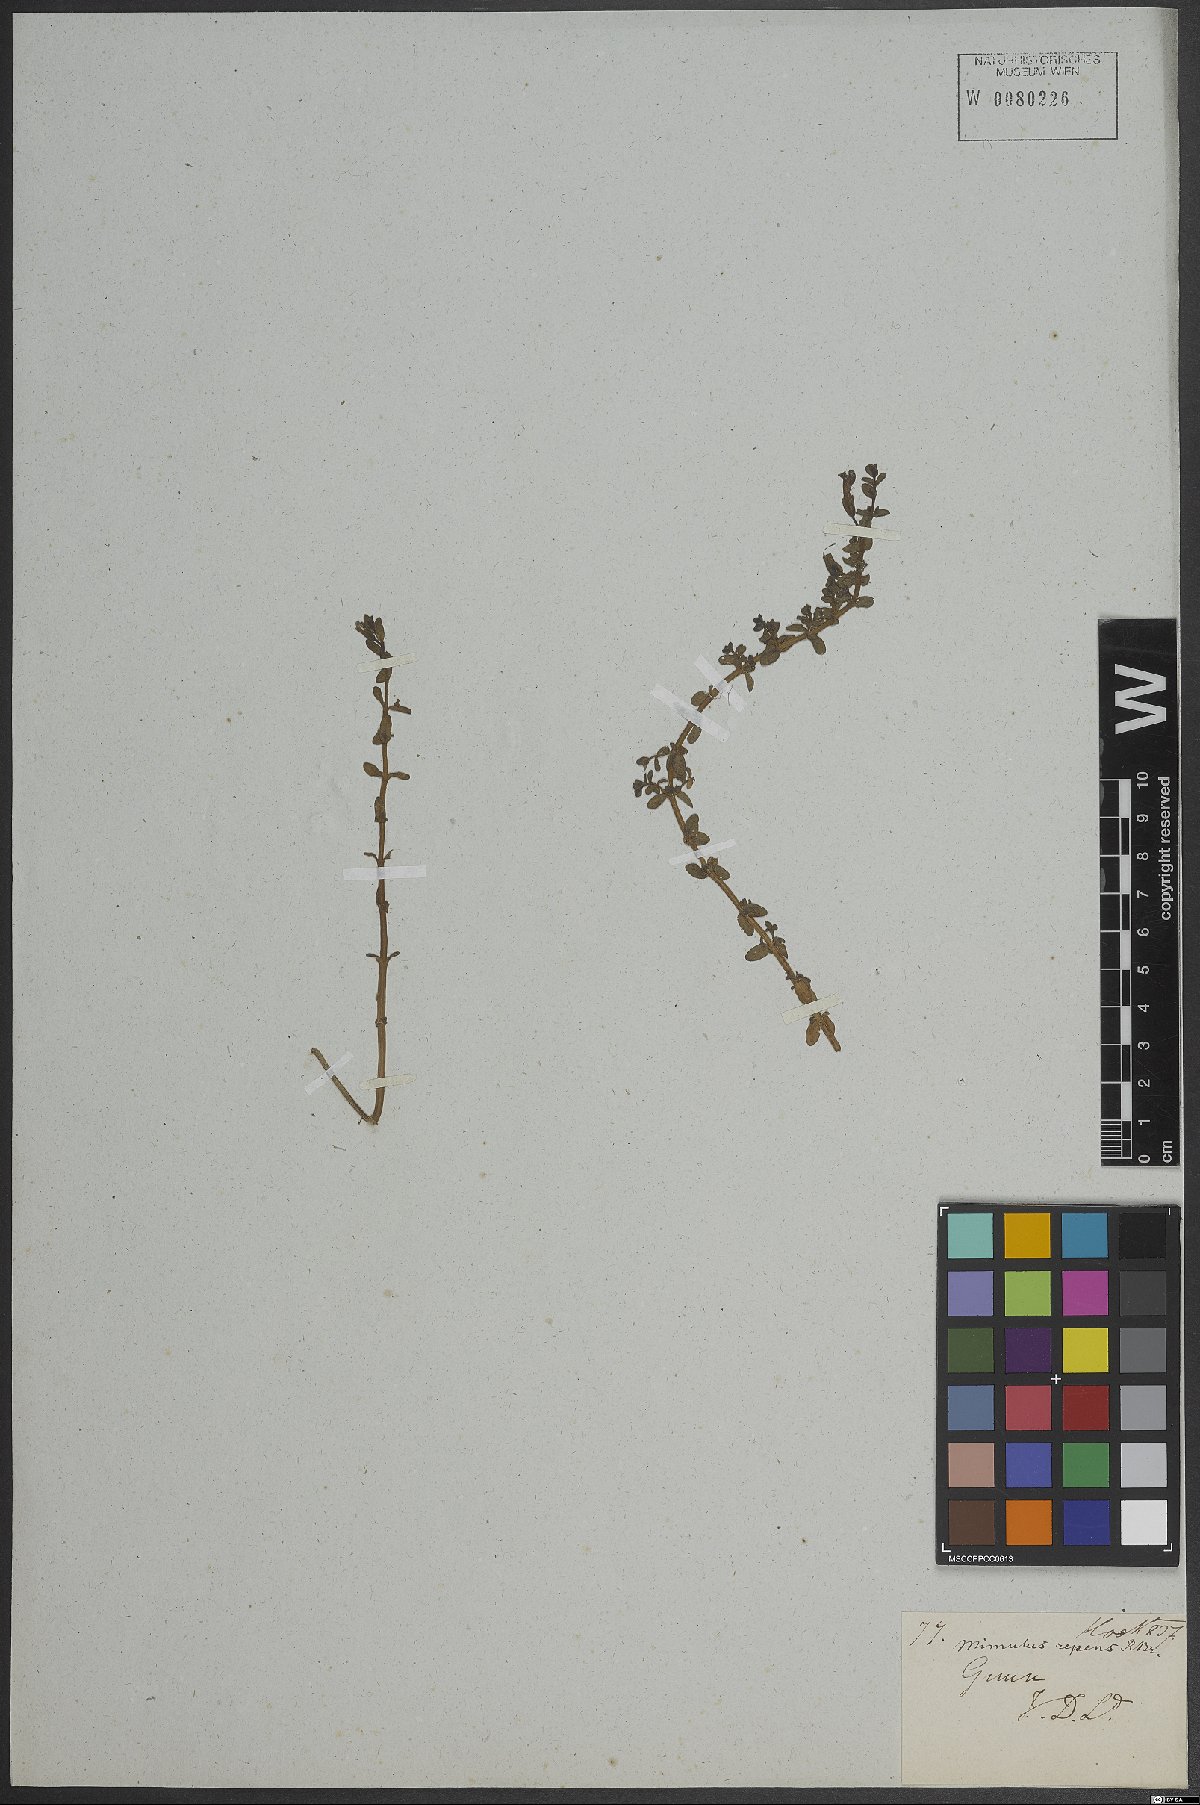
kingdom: Plantae
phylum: Tracheophyta
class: Magnoliopsida
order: Lamiales
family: Phrymaceae
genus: Mimulus
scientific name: Mimulus
